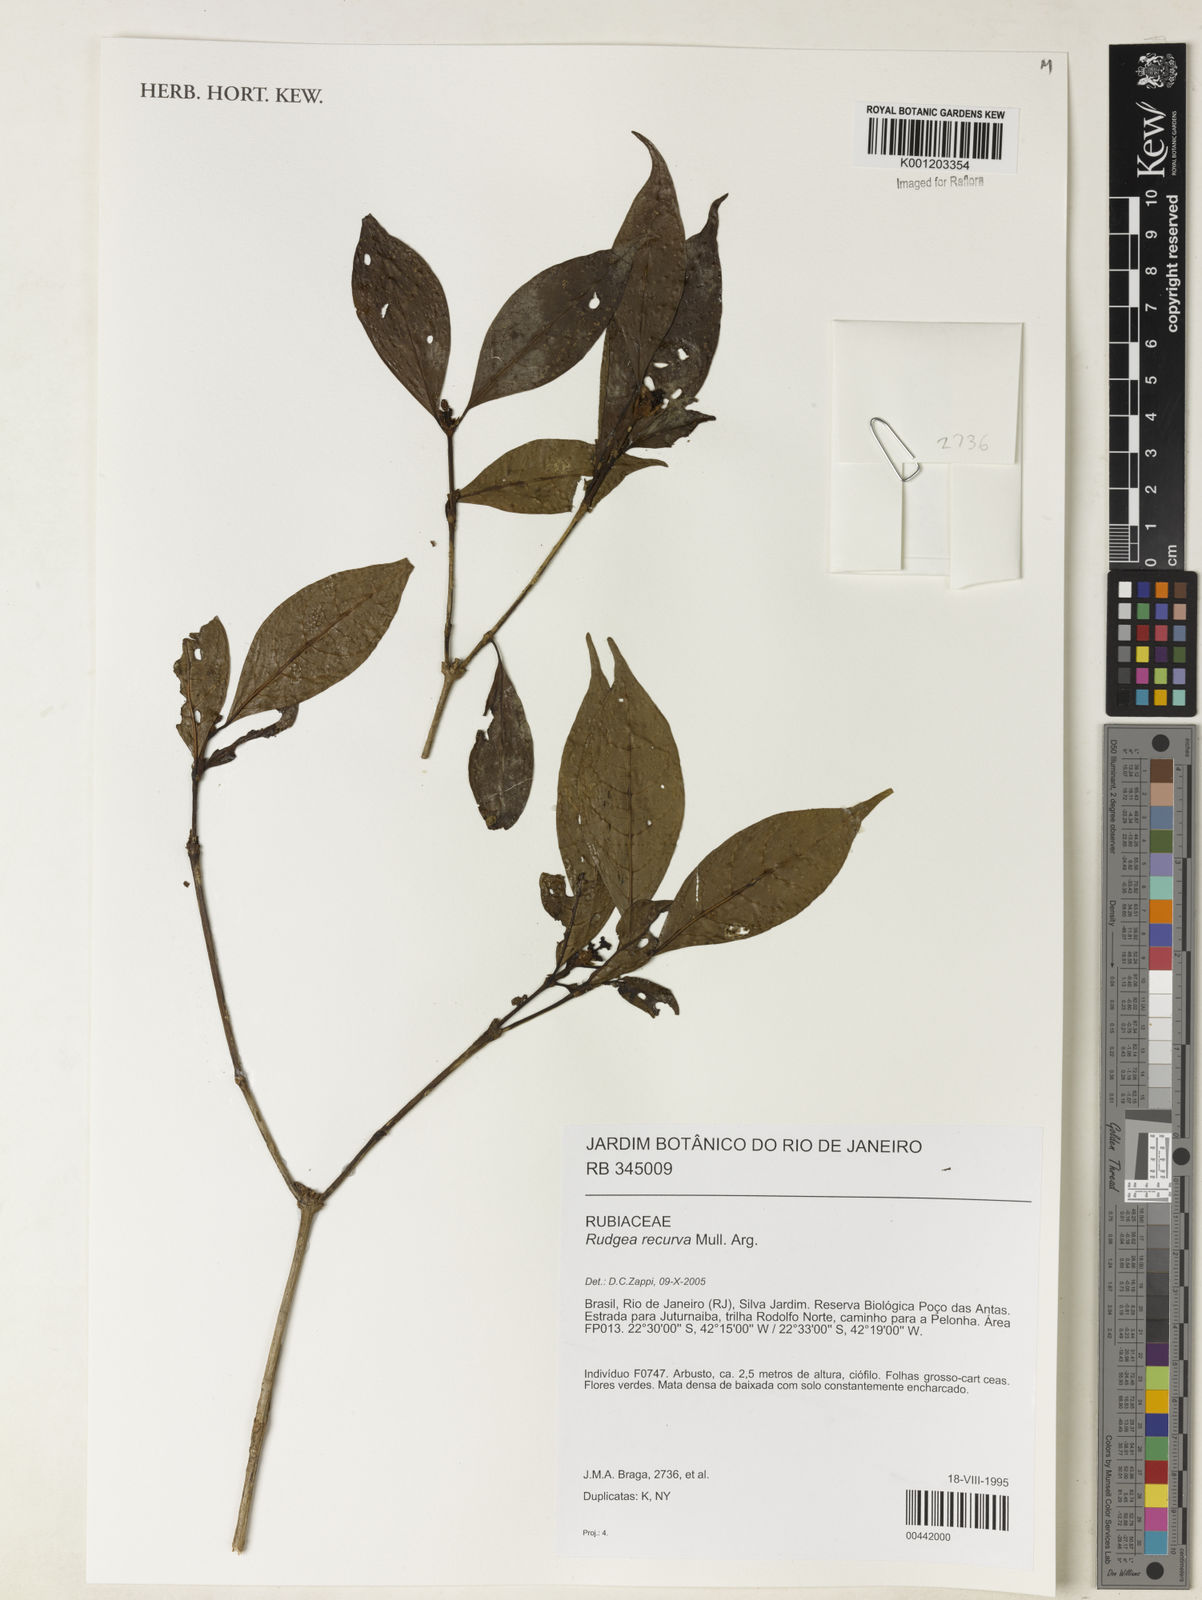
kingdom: Plantae
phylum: Tracheophyta
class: Magnoliopsida
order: Gentianales
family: Rubiaceae
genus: Rudgea
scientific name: Rudgea
